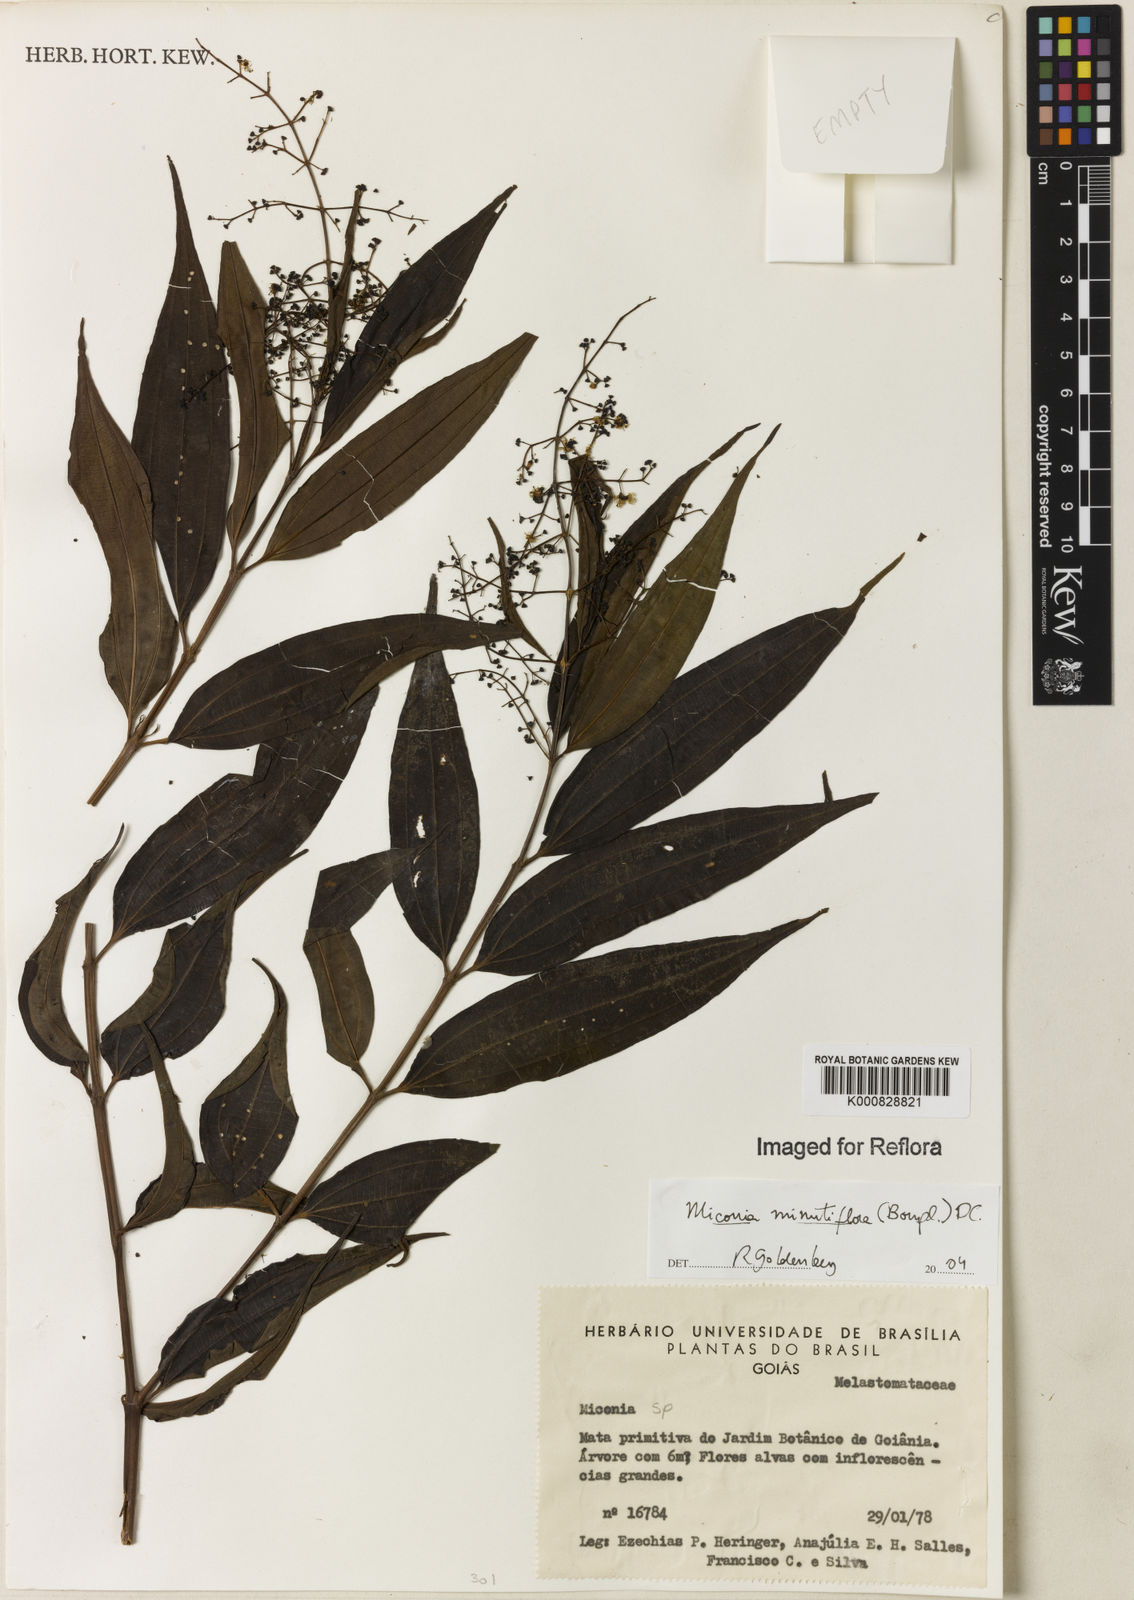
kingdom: Plantae
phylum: Tracheophyta
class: Magnoliopsida
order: Myrtales
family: Melastomataceae
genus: Miconia
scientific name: Miconia minutiflora
